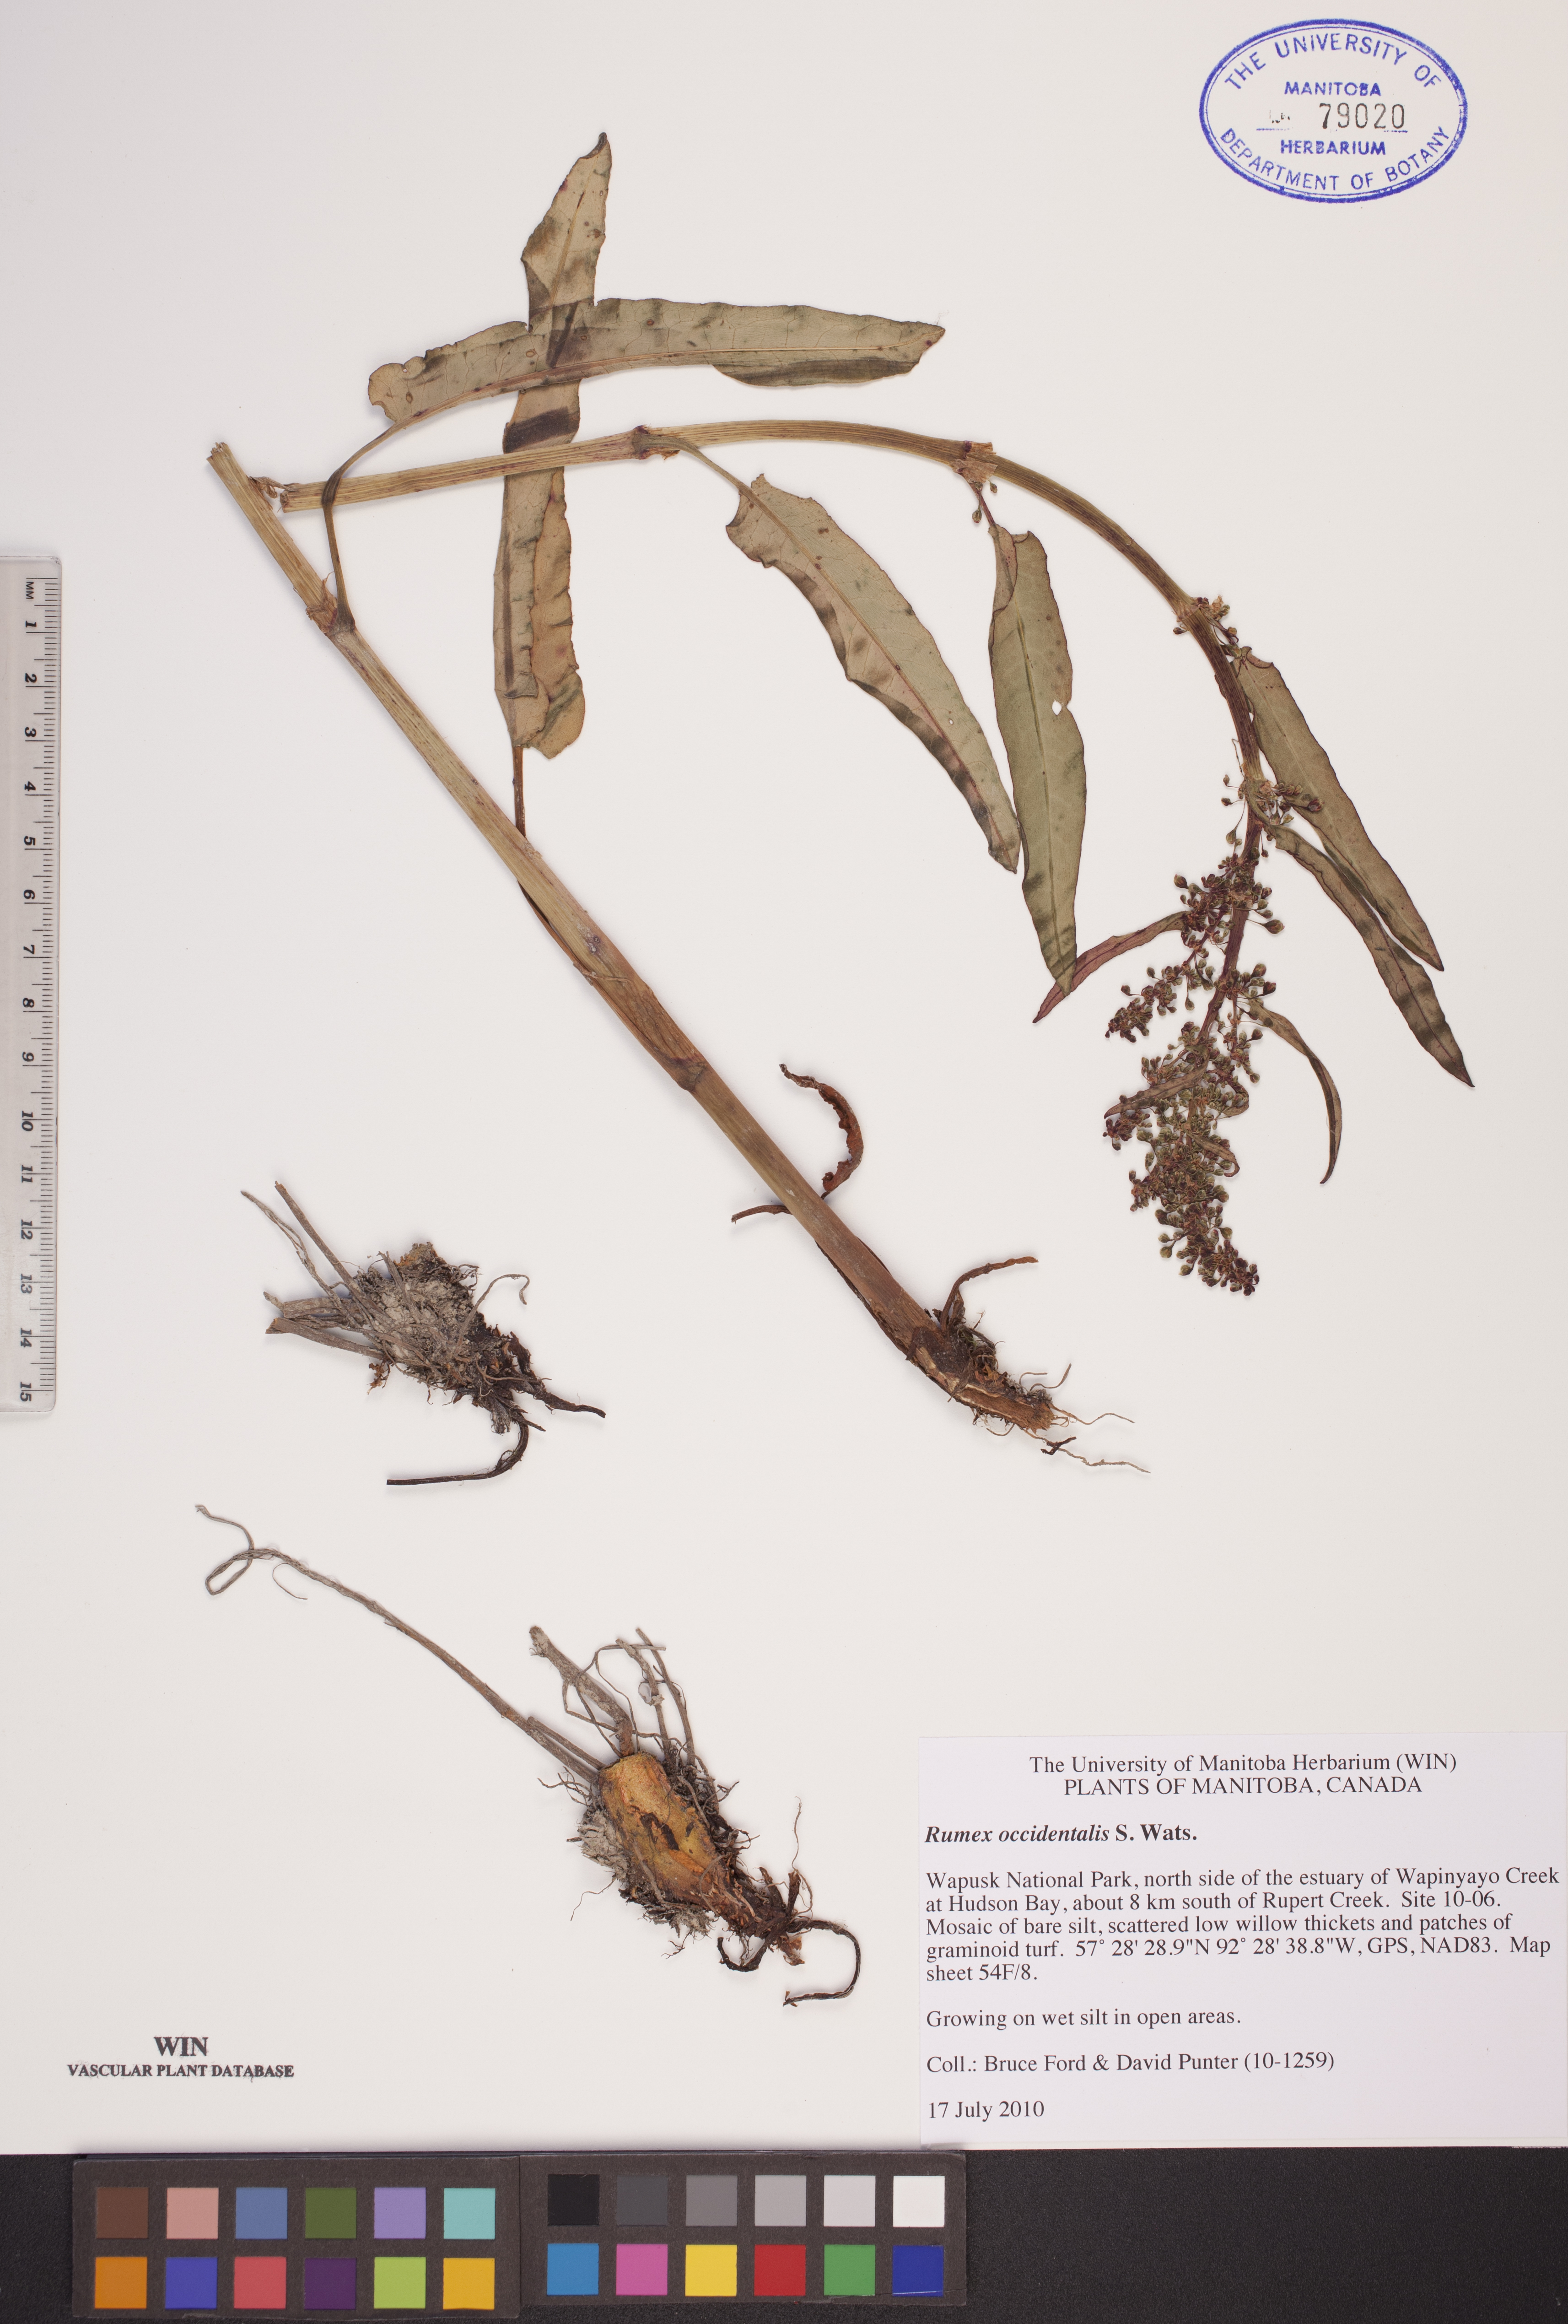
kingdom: Plantae
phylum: Tracheophyta
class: Magnoliopsida
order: Caryophyllales
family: Polygonaceae
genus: Rumex
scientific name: Rumex occidentalis
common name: Western dock
